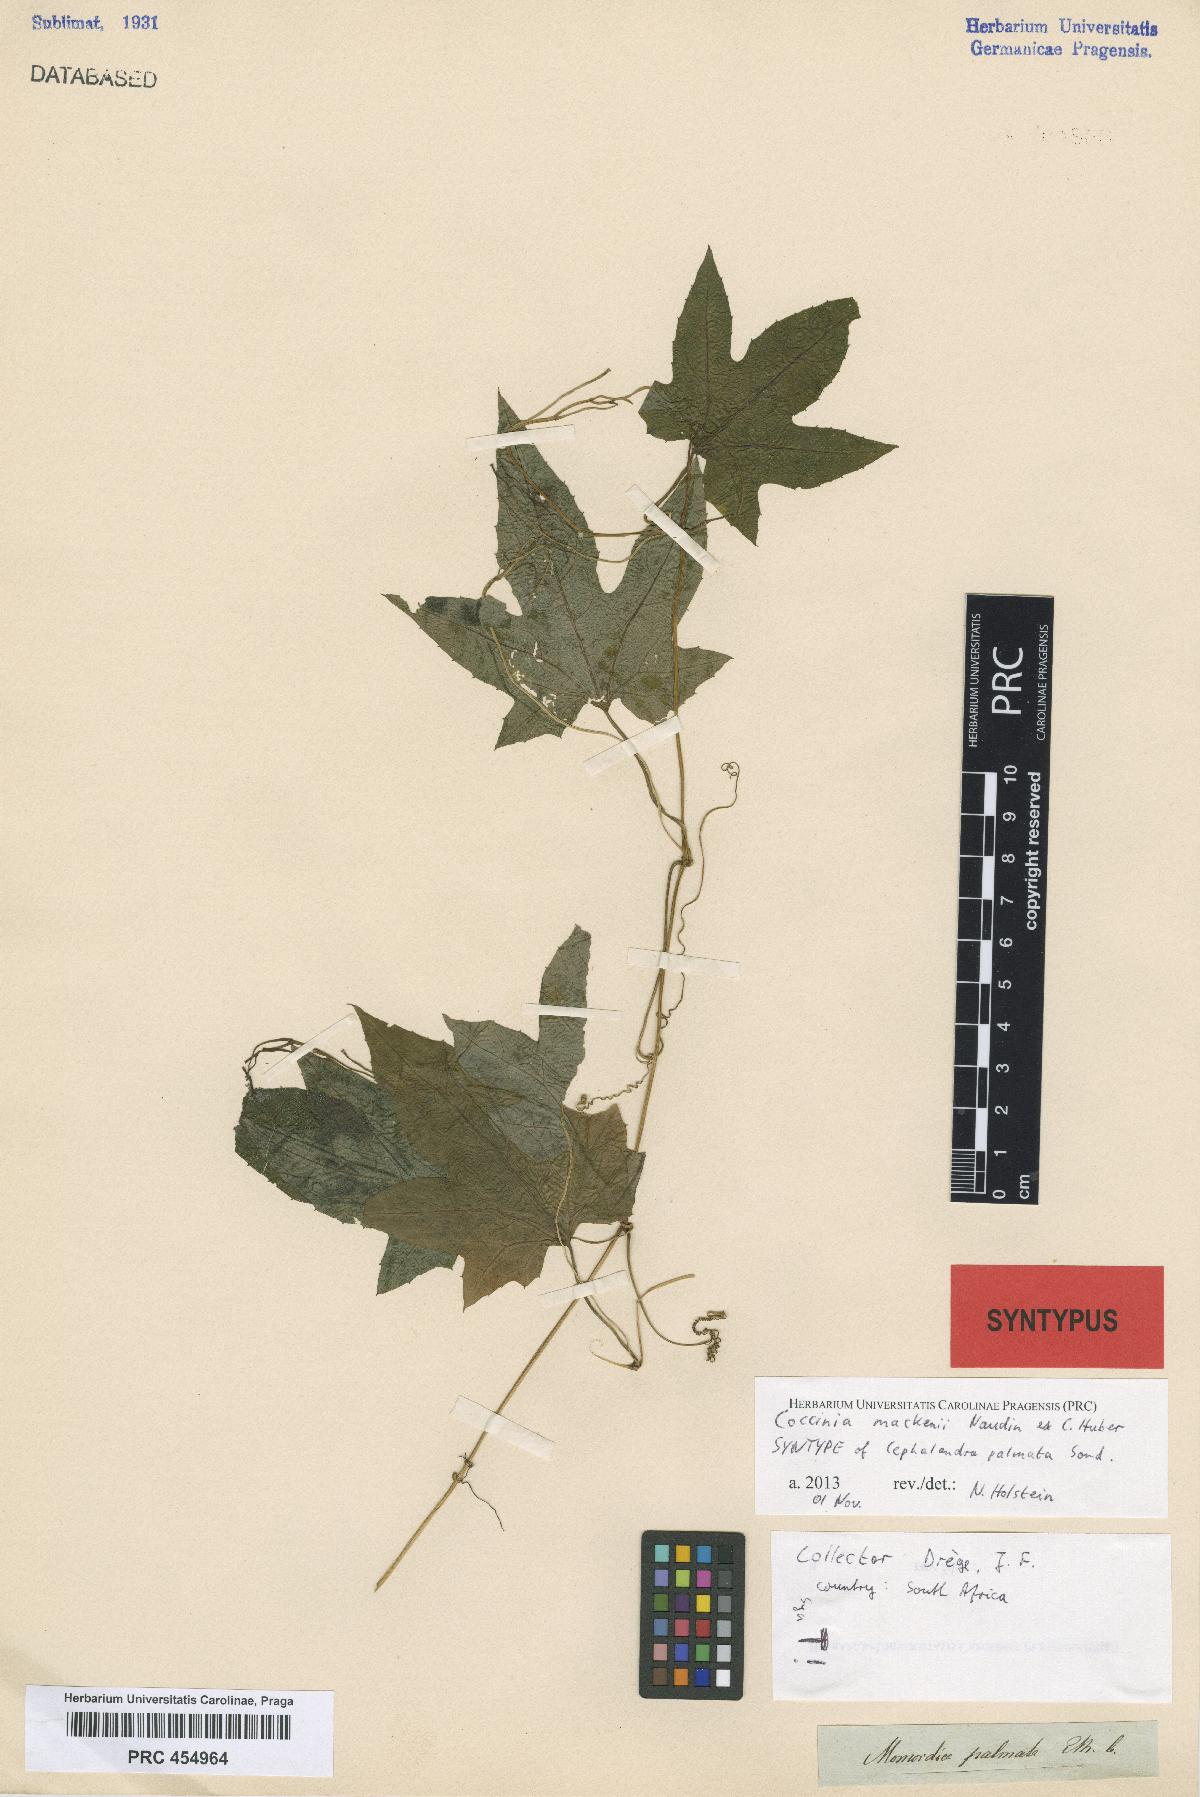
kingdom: Plantae
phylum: Tracheophyta
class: Magnoliopsida
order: Cucurbitales
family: Cucurbitaceae
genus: Coccinia
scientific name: Coccinia mackennii
